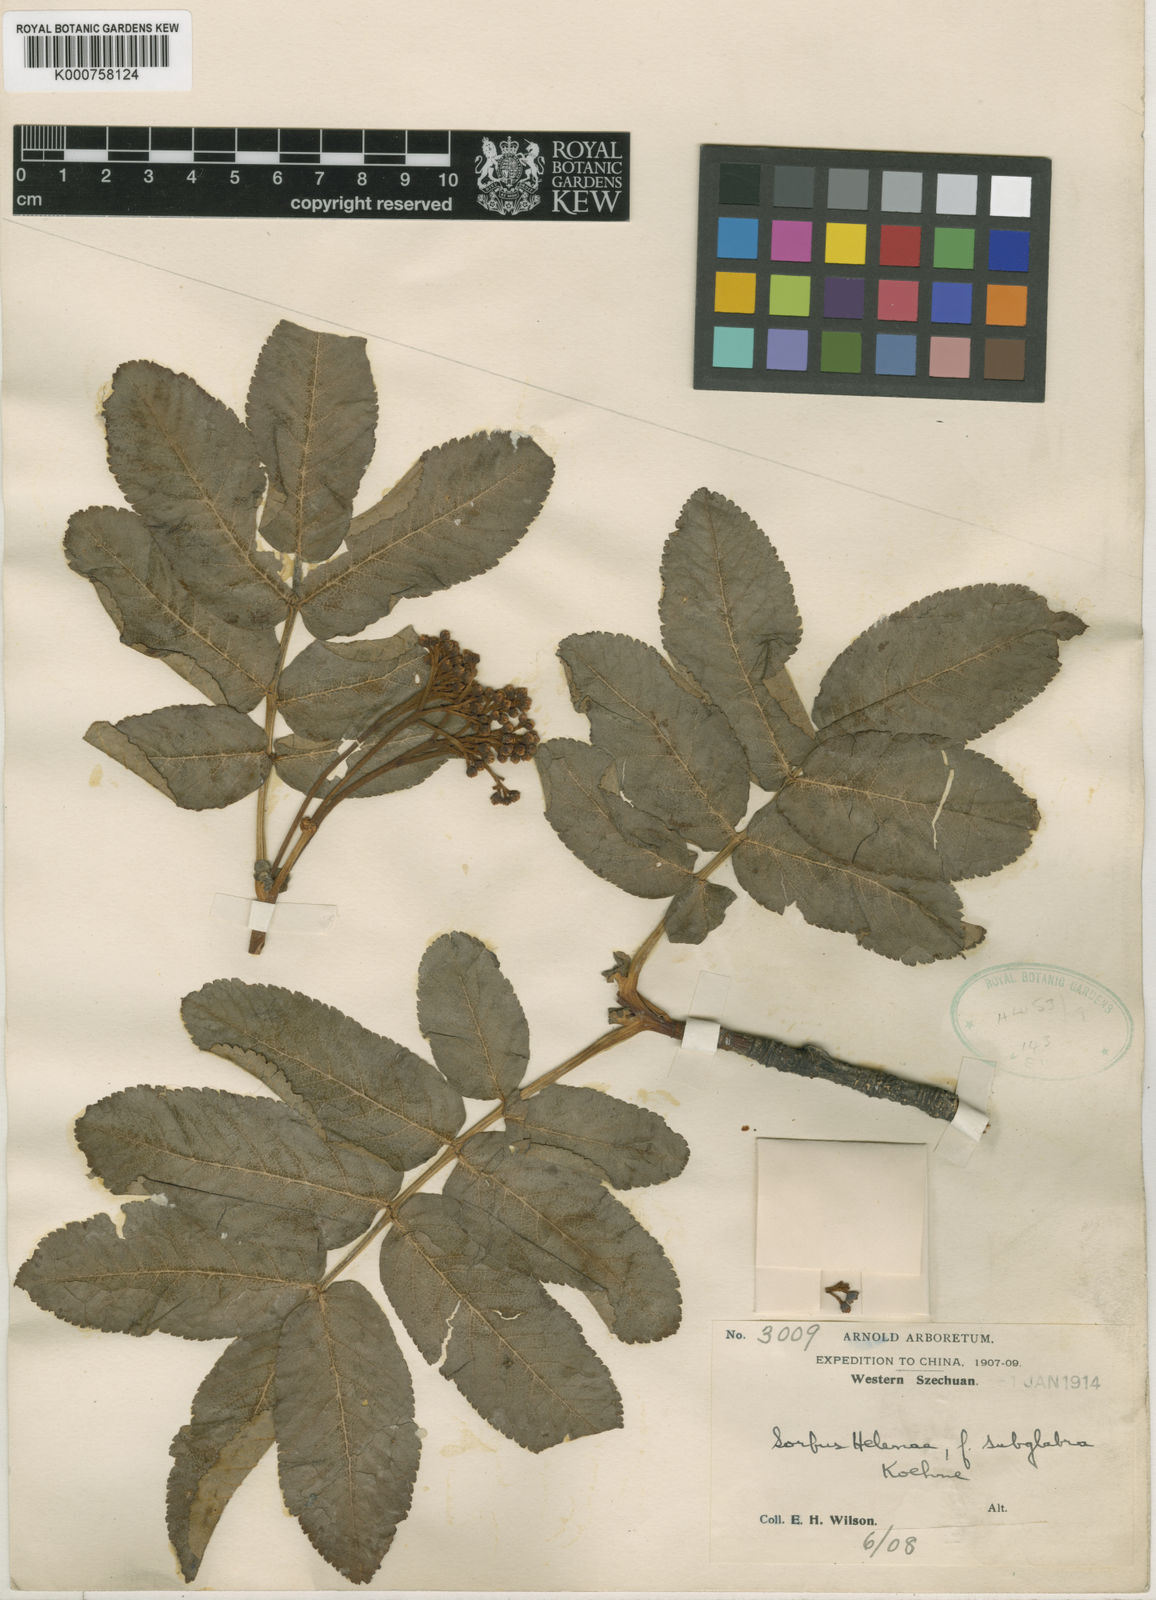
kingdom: Plantae
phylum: Tracheophyta
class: Magnoliopsida
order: Rosales
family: Rosaceae
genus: Sorbus
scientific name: Sorbus helenae
